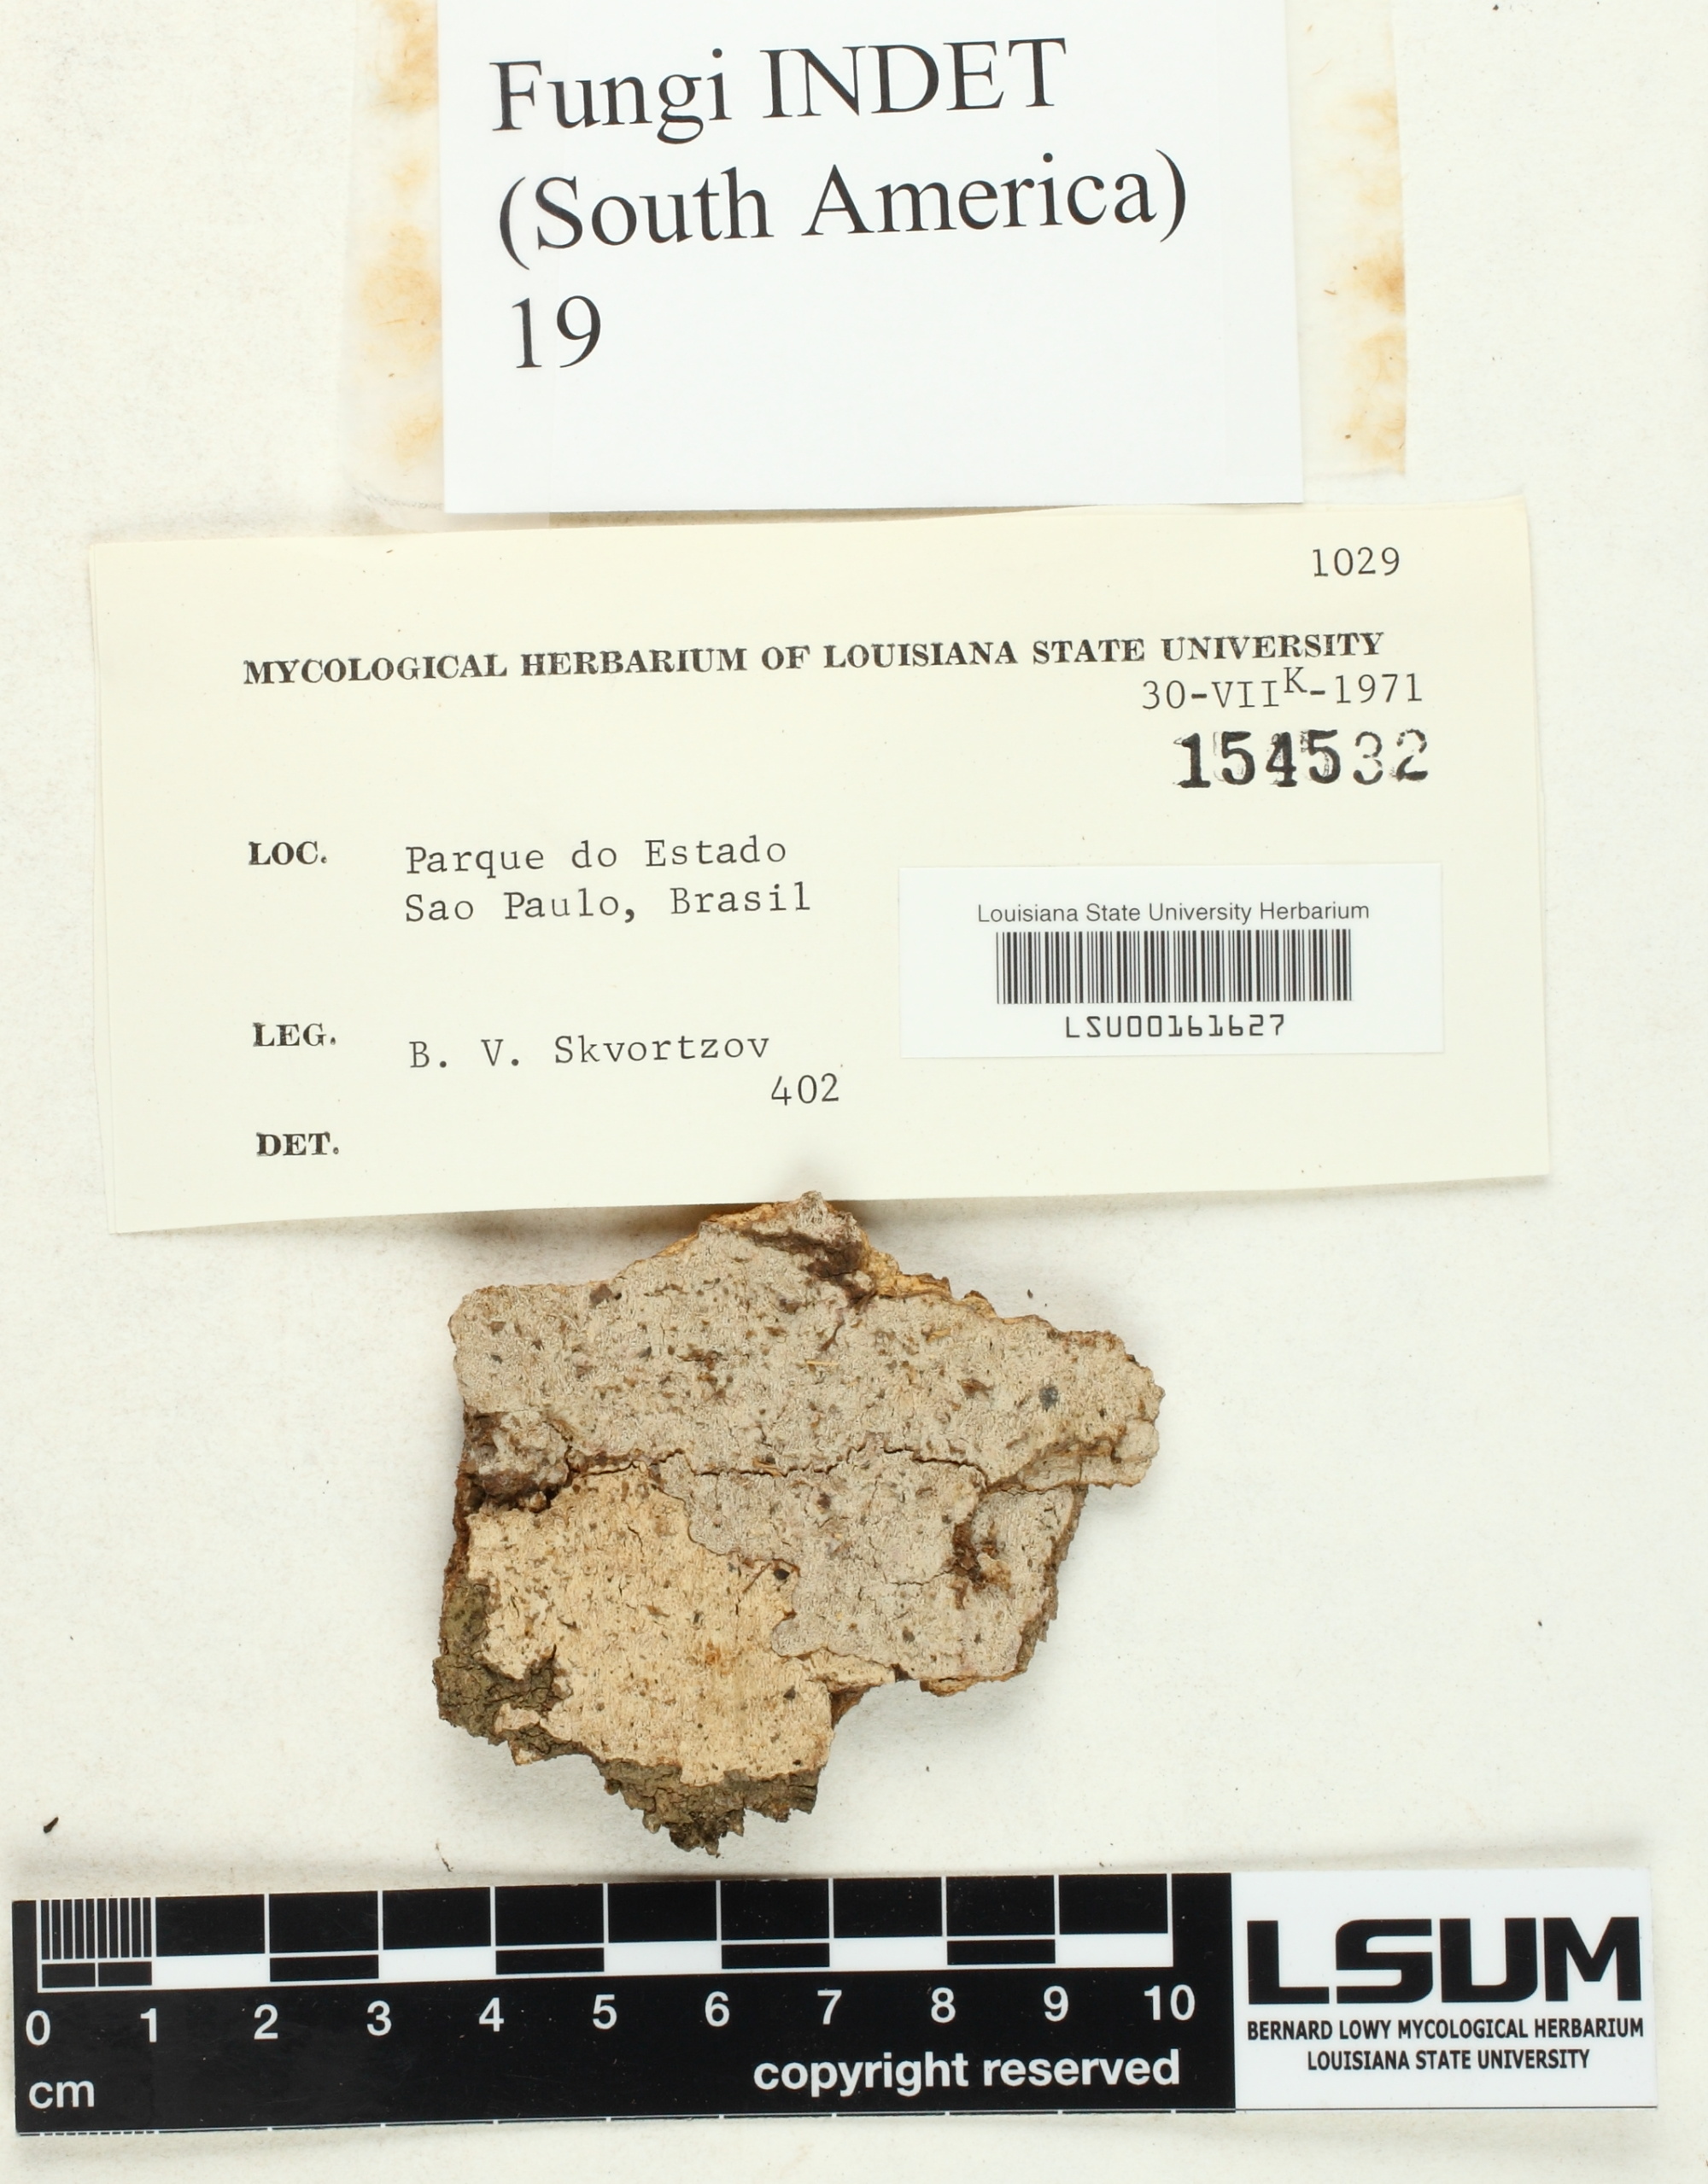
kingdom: Fungi
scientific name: Fungi
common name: Fungi
